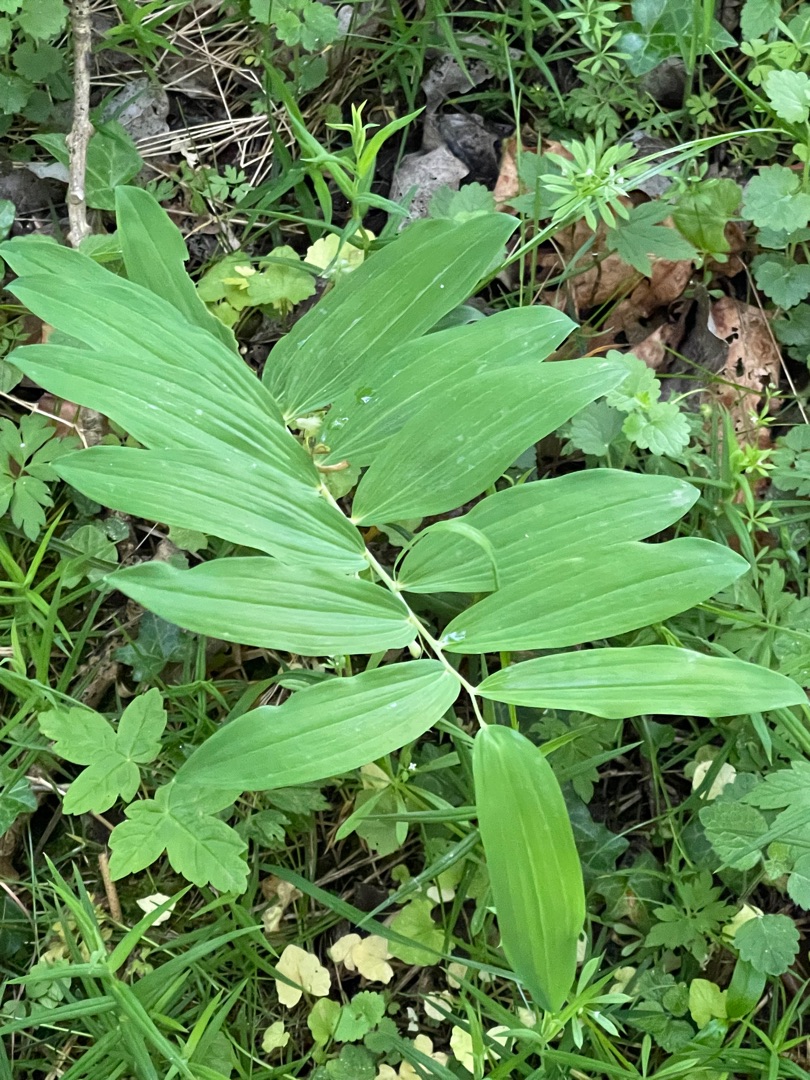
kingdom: Plantae
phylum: Tracheophyta
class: Liliopsida
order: Asparagales
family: Asparagaceae
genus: Polygonatum
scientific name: Polygonatum multiflorum
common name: Stor konval
